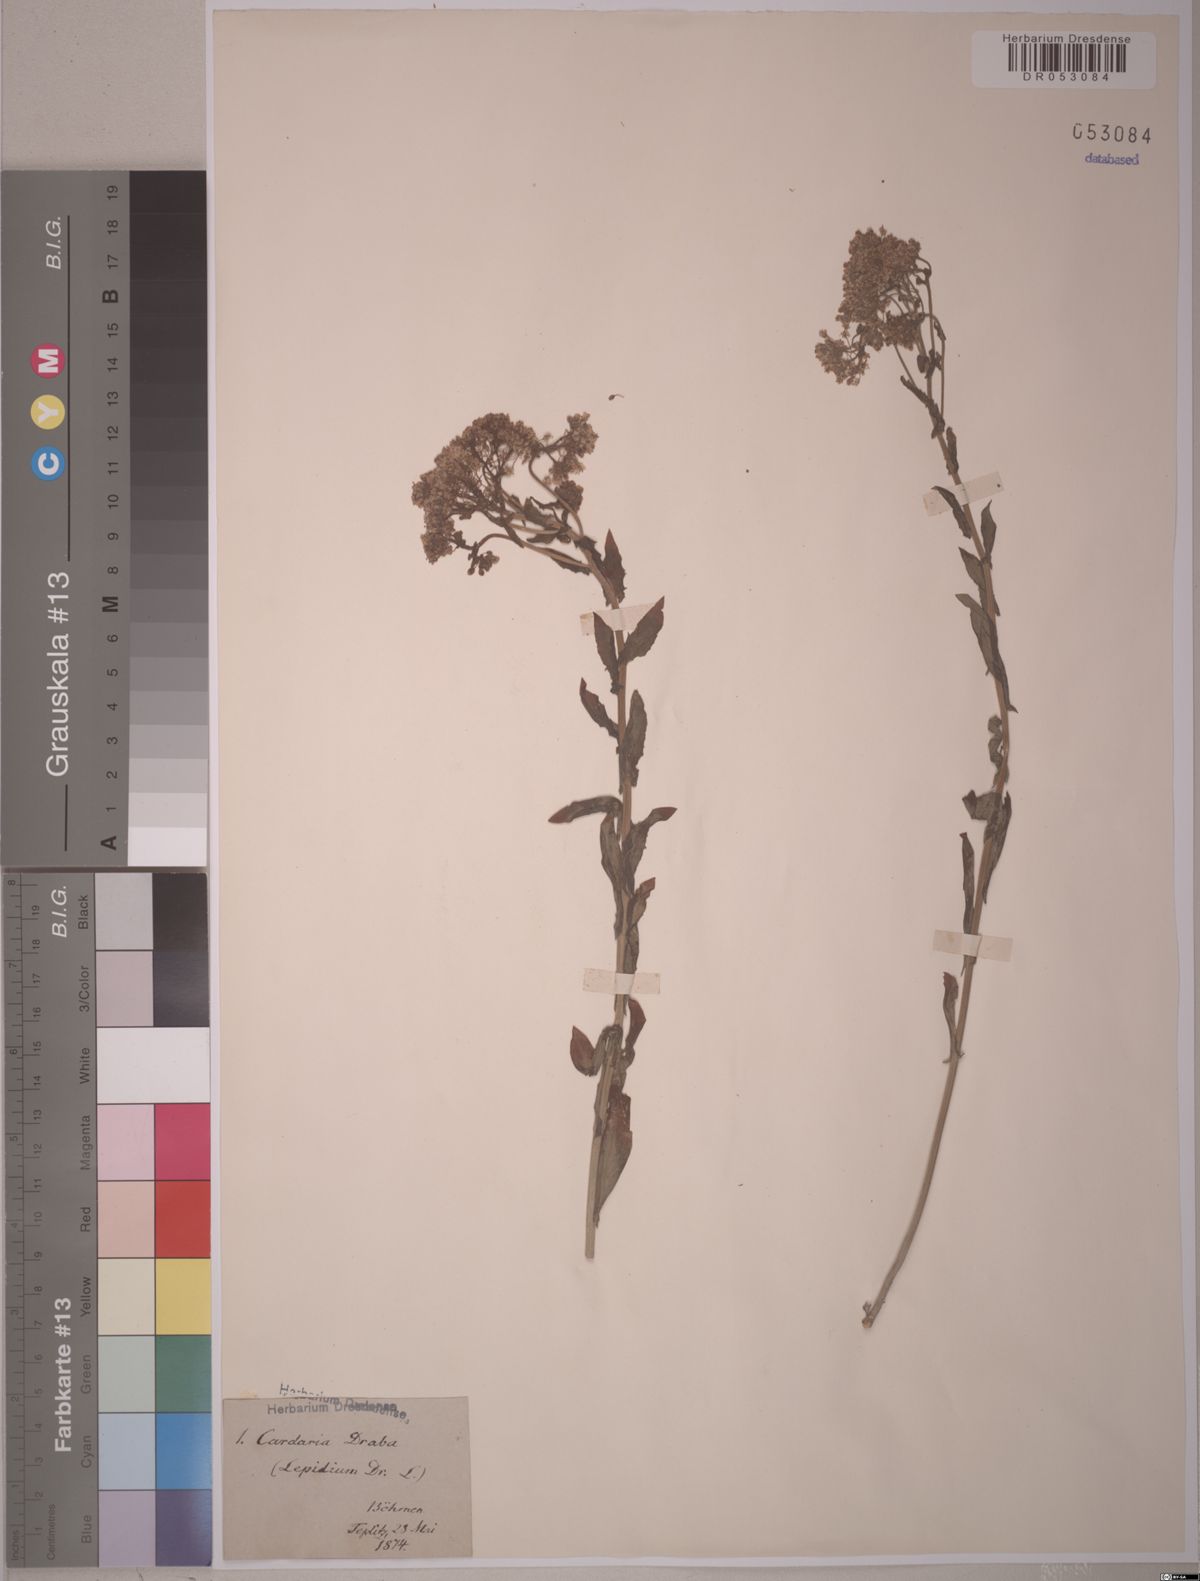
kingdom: Plantae
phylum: Tracheophyta
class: Magnoliopsida
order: Brassicales
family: Brassicaceae
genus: Lepidium
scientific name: Lepidium draba
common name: Hoary cress
